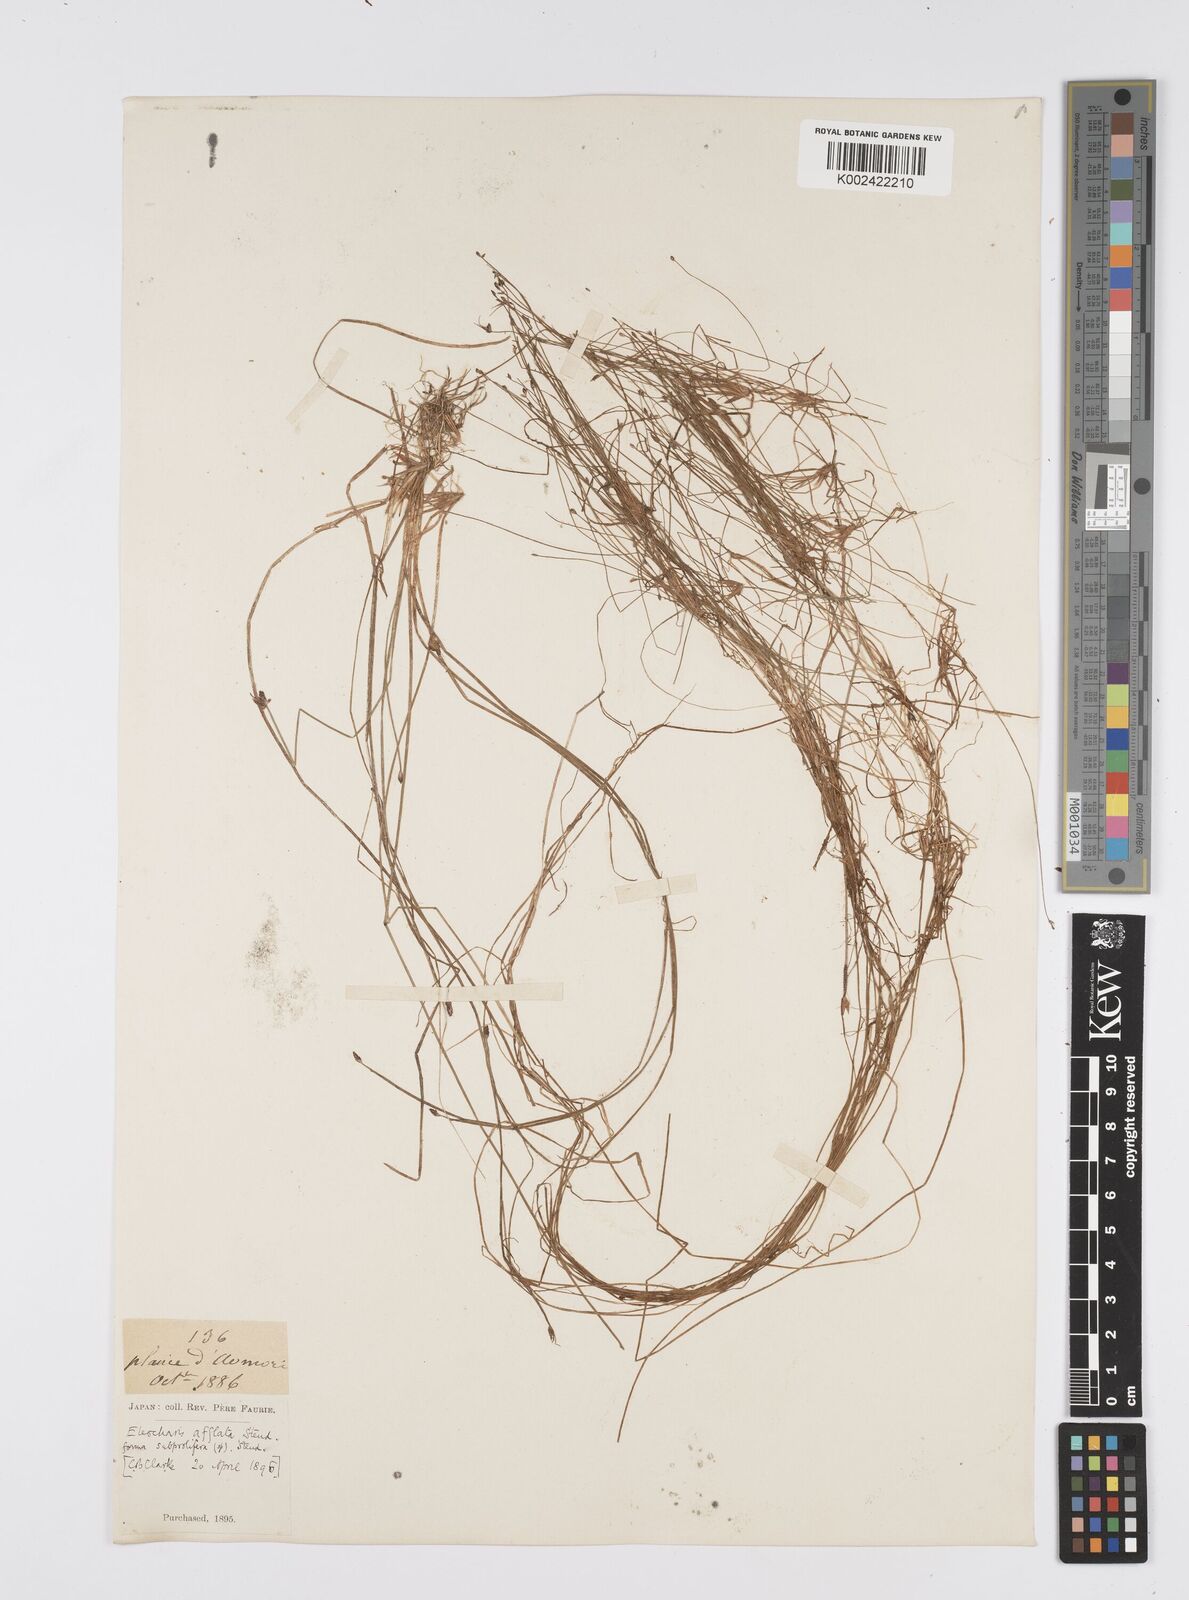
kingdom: Plantae
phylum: Tracheophyta
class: Liliopsida
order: Poales
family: Cyperaceae
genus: Eleocharis
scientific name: Eleocharis pellucida
